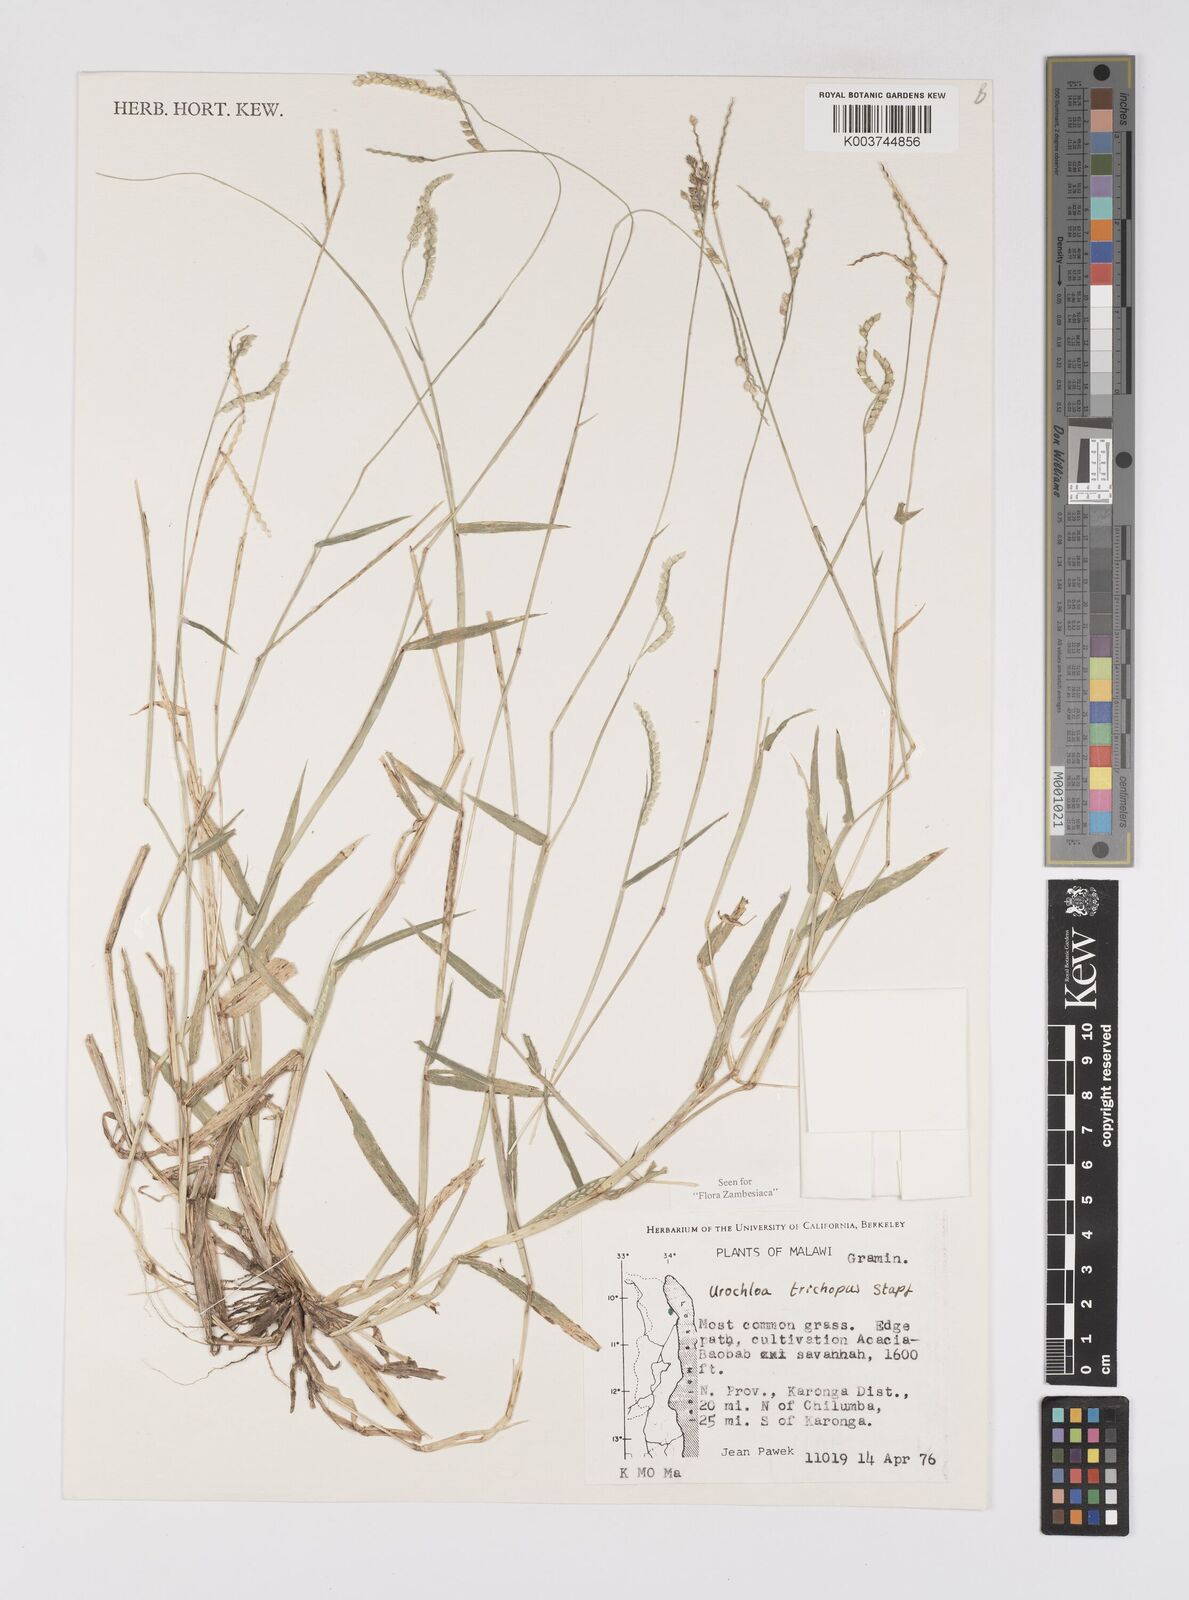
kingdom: Plantae
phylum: Tracheophyta
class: Liliopsida
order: Poales
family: Poaceae
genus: Urochloa
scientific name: Urochloa trichopus
